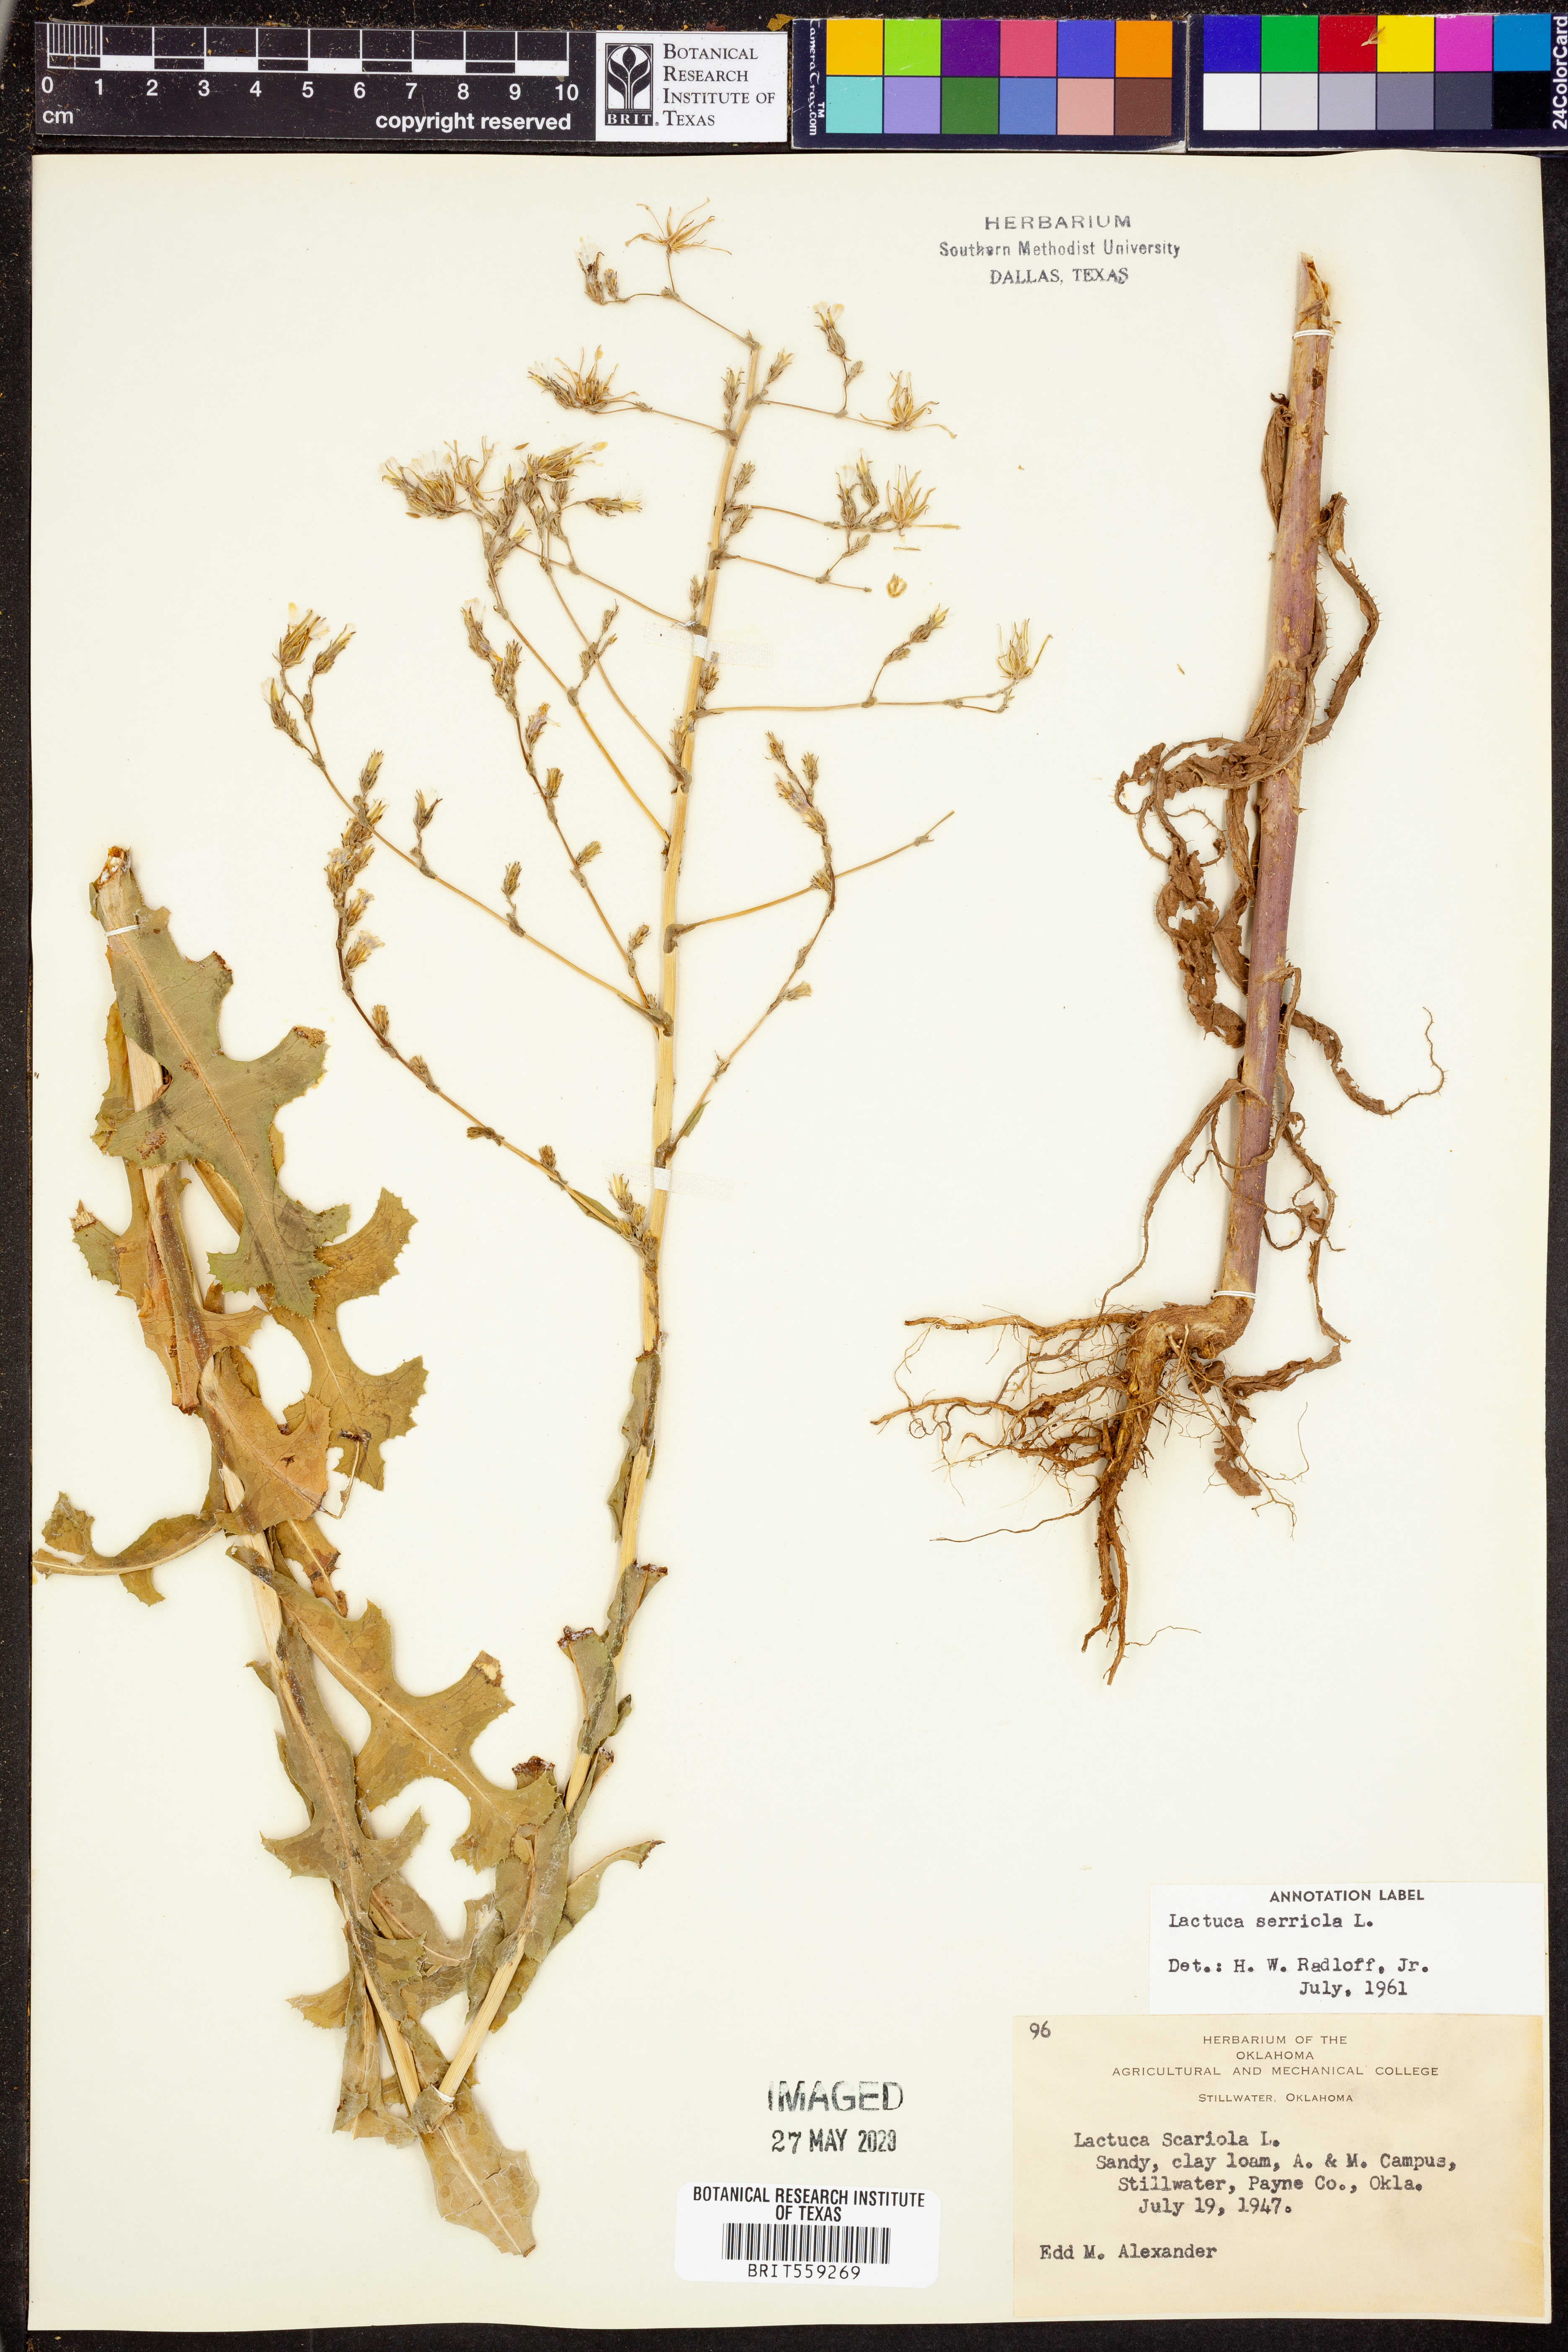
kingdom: Plantae
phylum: Tracheophyta
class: Magnoliopsida
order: Asterales
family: Asteraceae
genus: Lactuca
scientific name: Lactuca serriola
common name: Prickly lettuce
